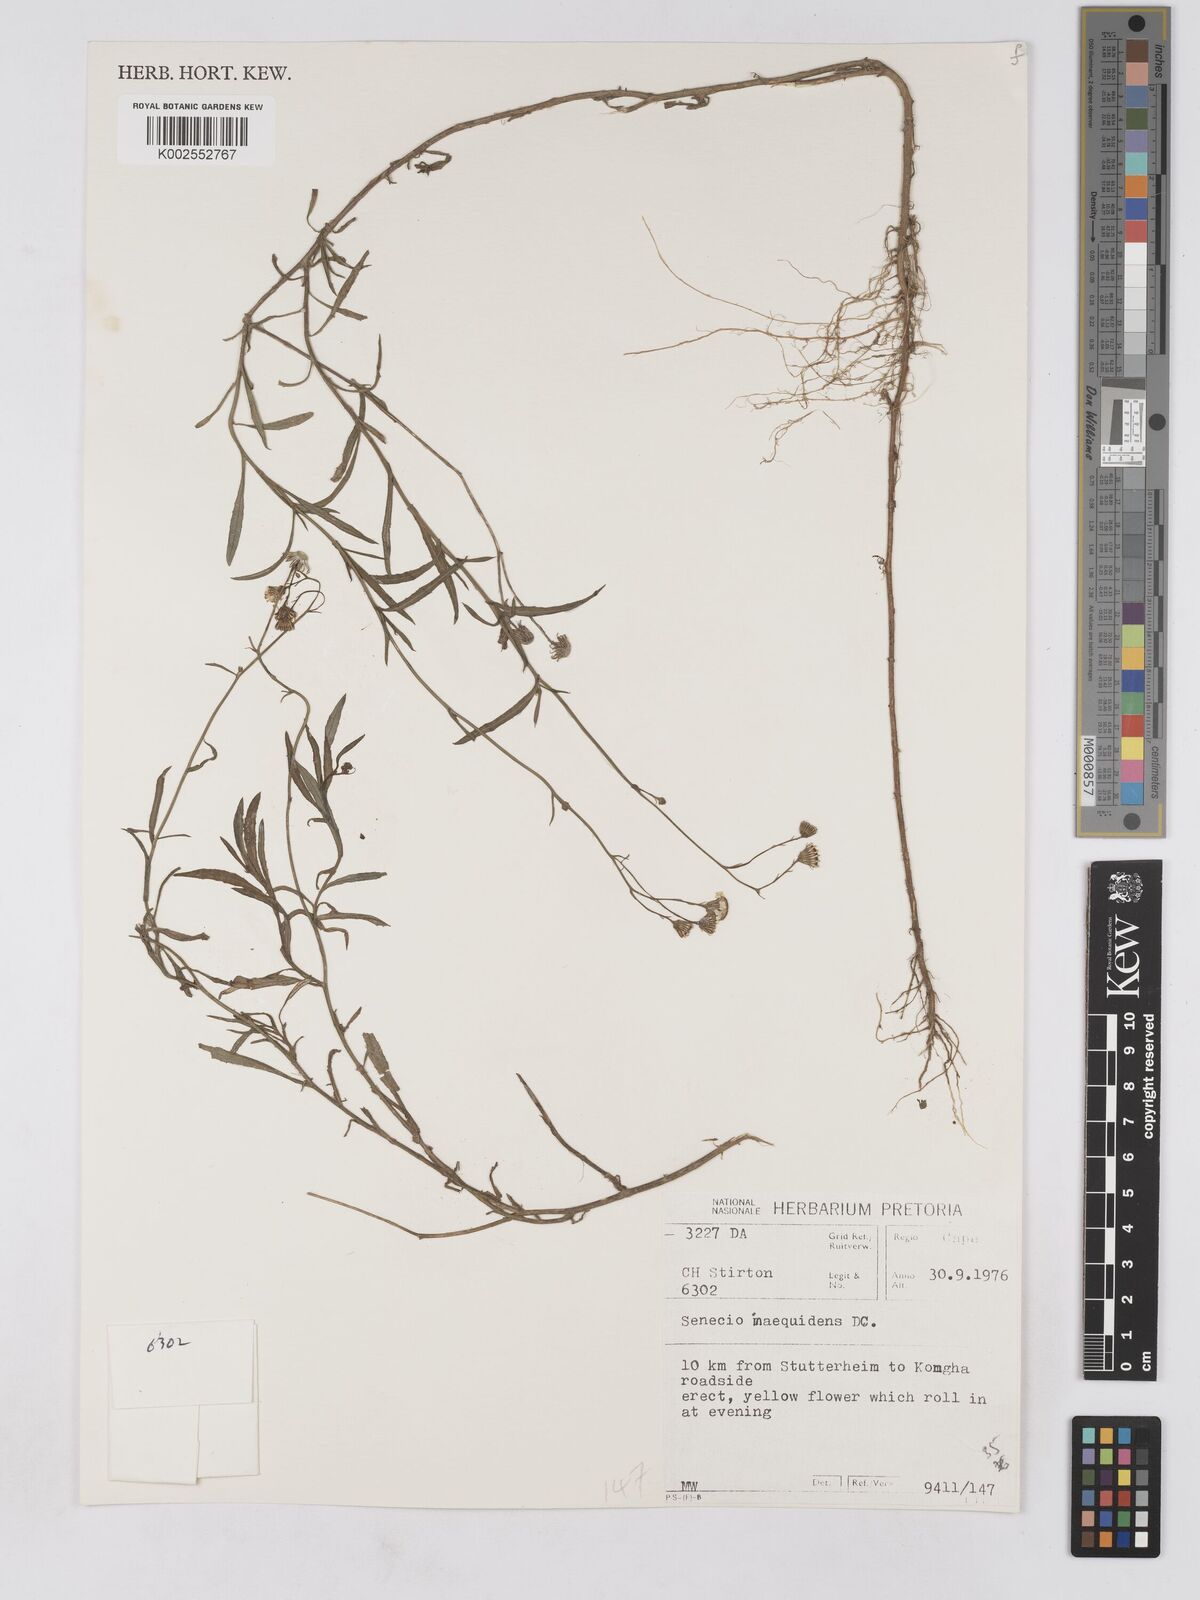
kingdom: Plantae
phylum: Tracheophyta
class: Magnoliopsida
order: Asterales
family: Asteraceae
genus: Senecio
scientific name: Senecio madagascariensis
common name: Madagascar ragwort
